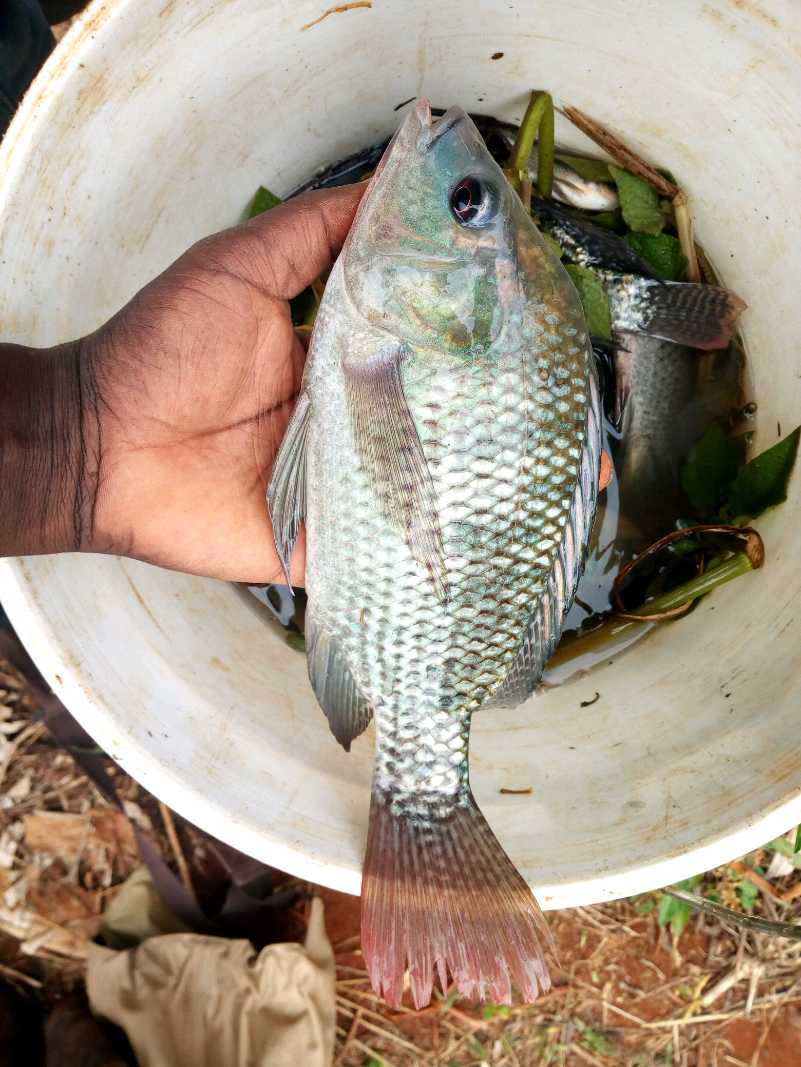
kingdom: Animalia
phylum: Chordata
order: Perciformes
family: Cichlidae
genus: Oreochromis
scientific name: Oreochromis niloticus
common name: Nile tilapia
